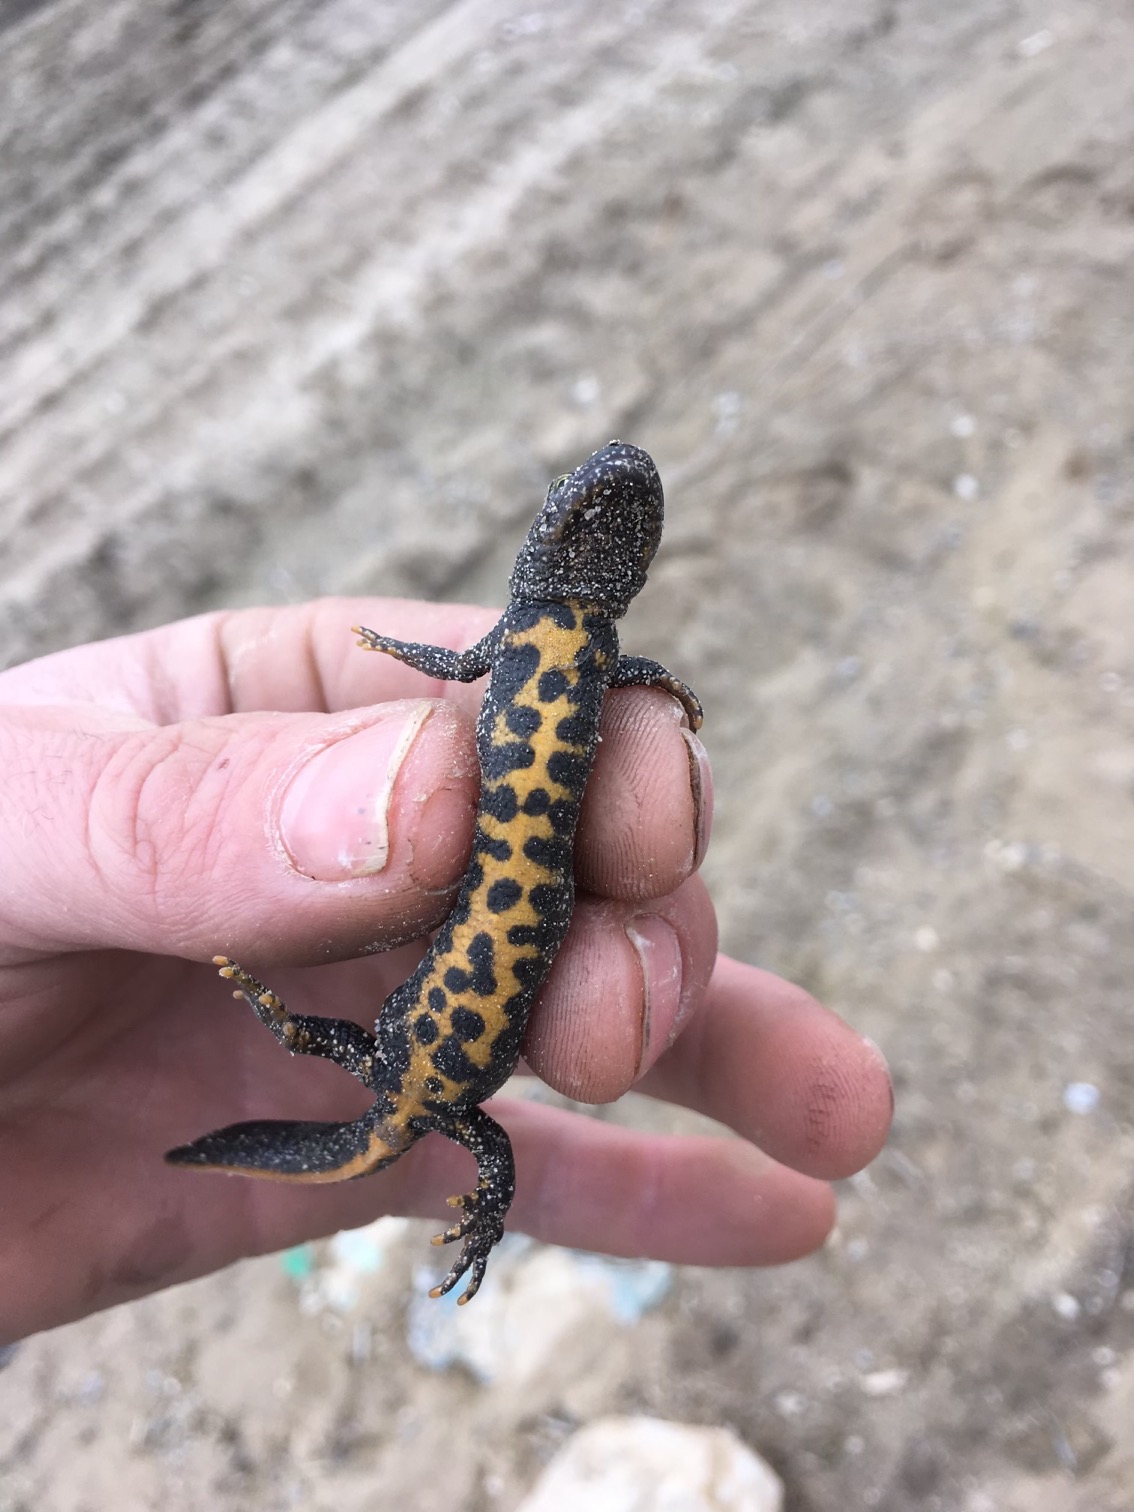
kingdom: Animalia
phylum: Chordata
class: Amphibia
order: Caudata
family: Salamandridae
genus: Triturus
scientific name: Triturus cristatus
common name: Stor vandsalamander
